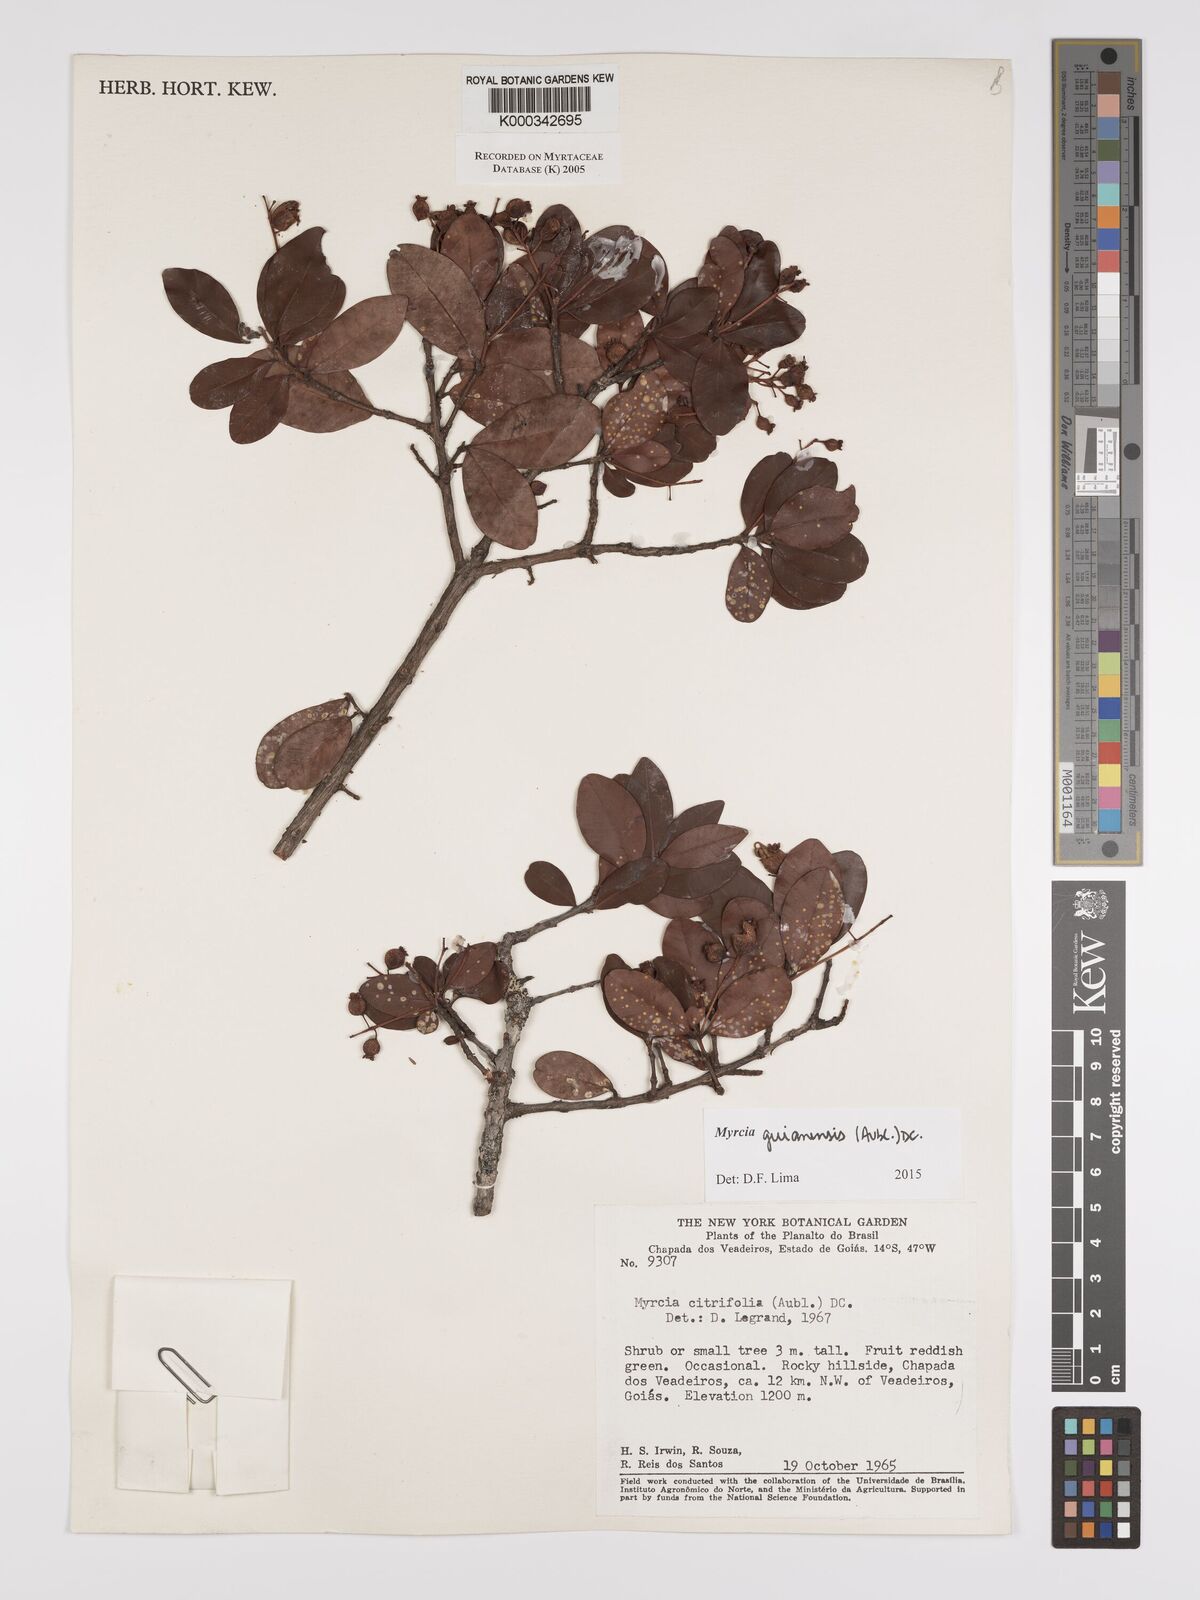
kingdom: Plantae
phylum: Tracheophyta
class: Magnoliopsida
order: Myrtales
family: Myrtaceae
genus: Myrcia
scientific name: Myrcia guianensis
